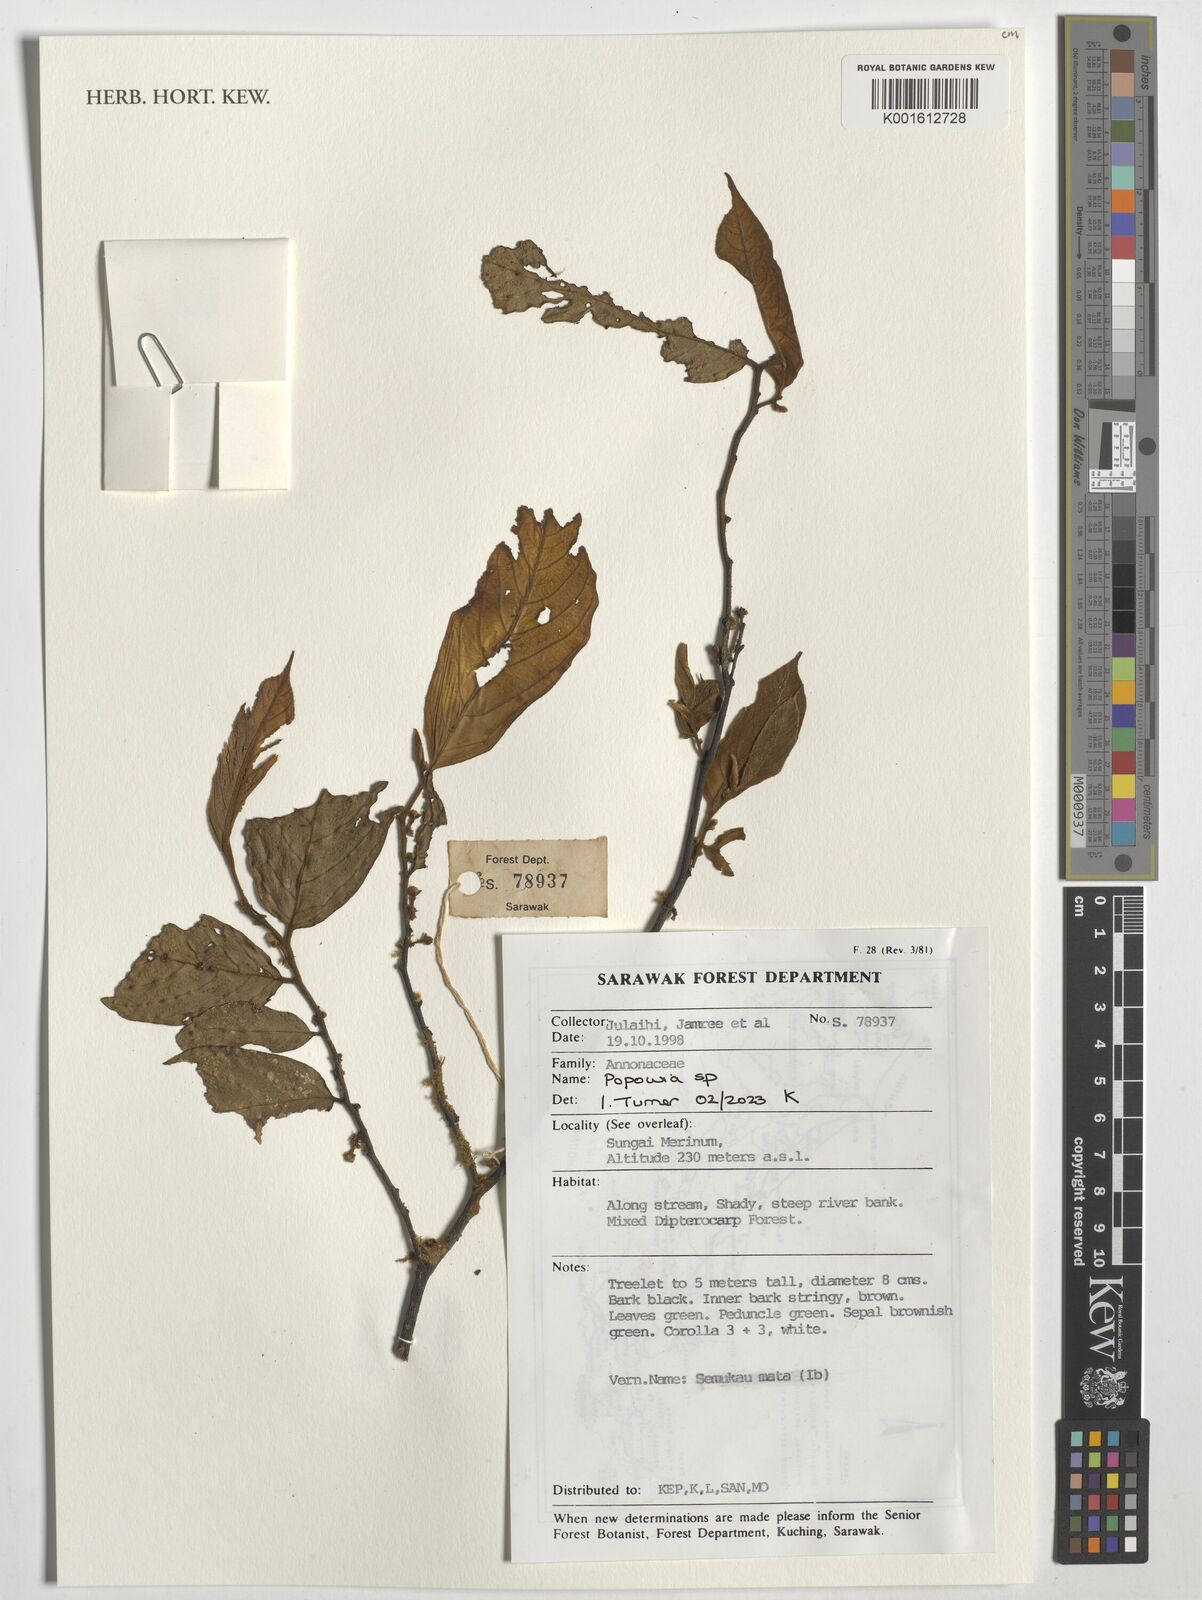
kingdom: Plantae
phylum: Tracheophyta
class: Magnoliopsida
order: Magnoliales
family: Annonaceae
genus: Popowia
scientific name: Popowia
